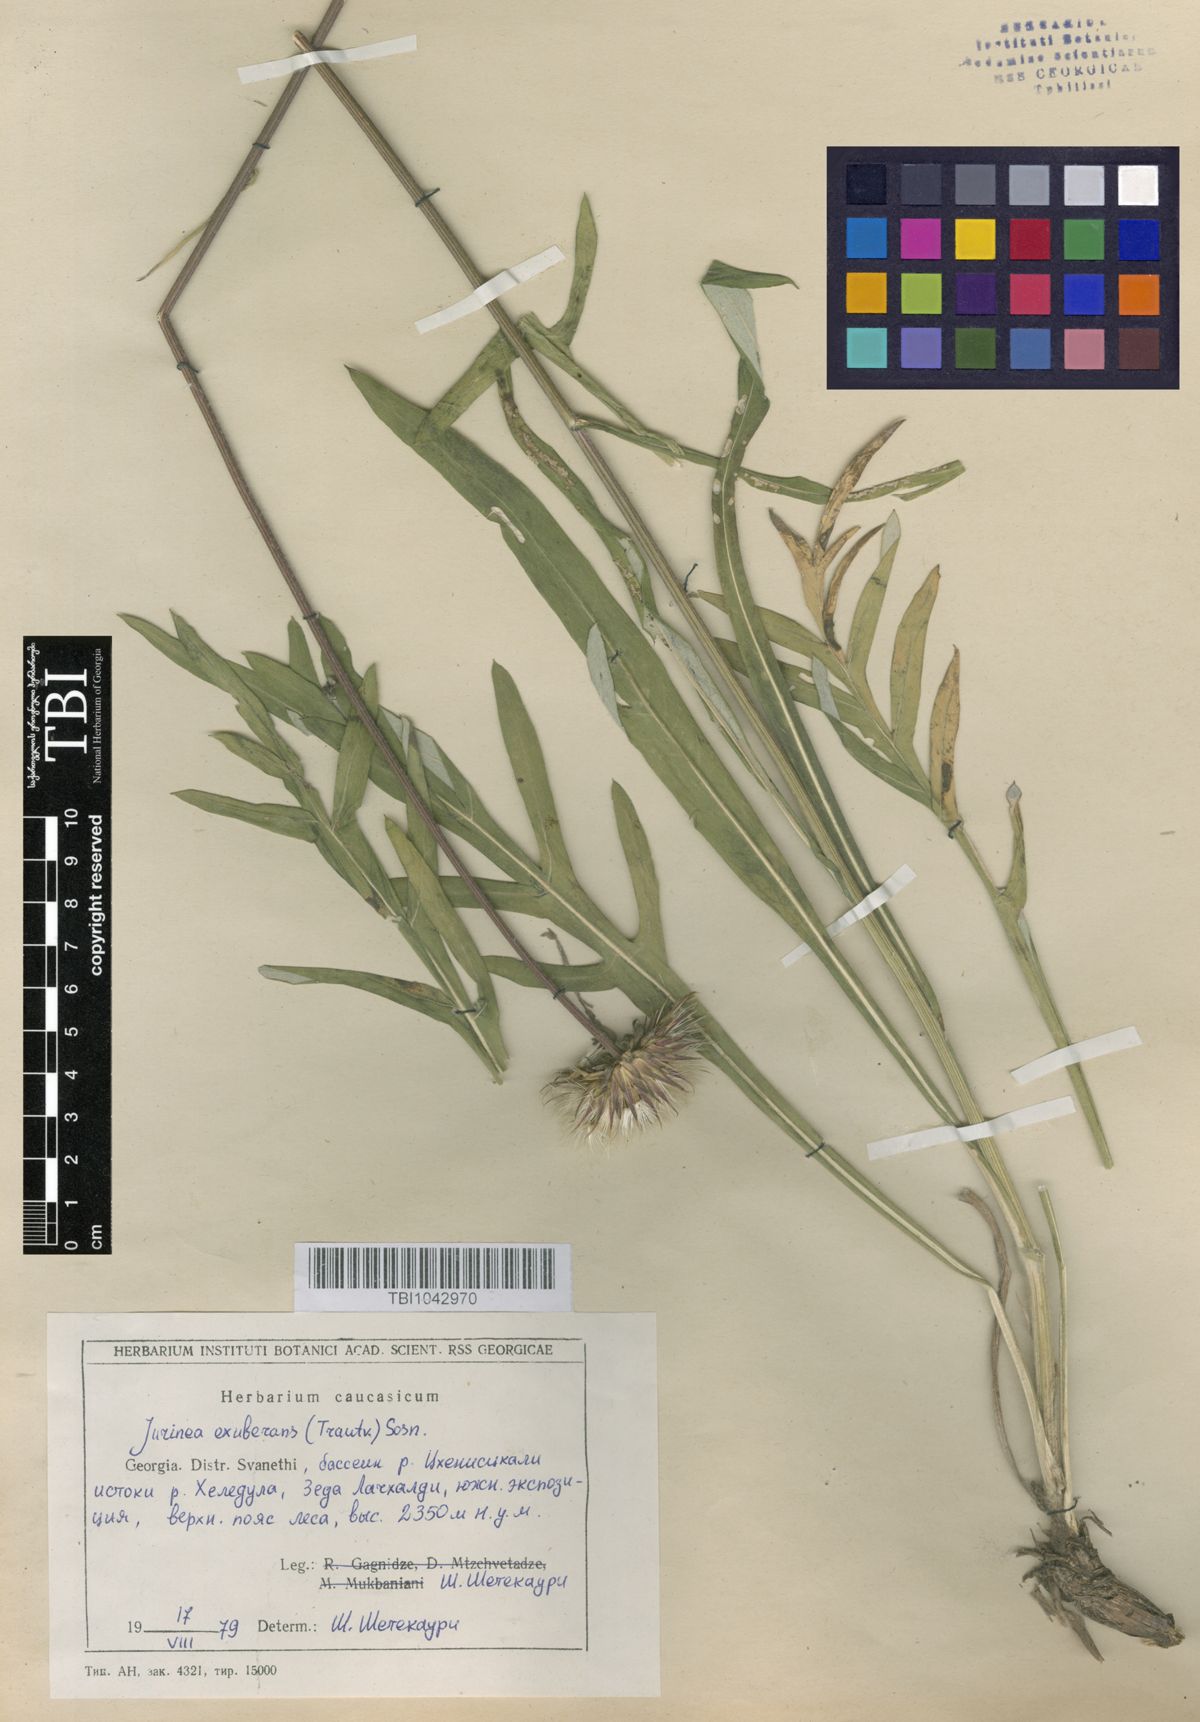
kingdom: Plantae
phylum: Tracheophyta
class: Magnoliopsida
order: Asterales
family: Asteraceae
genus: Jurinea
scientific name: Jurinea blanda
